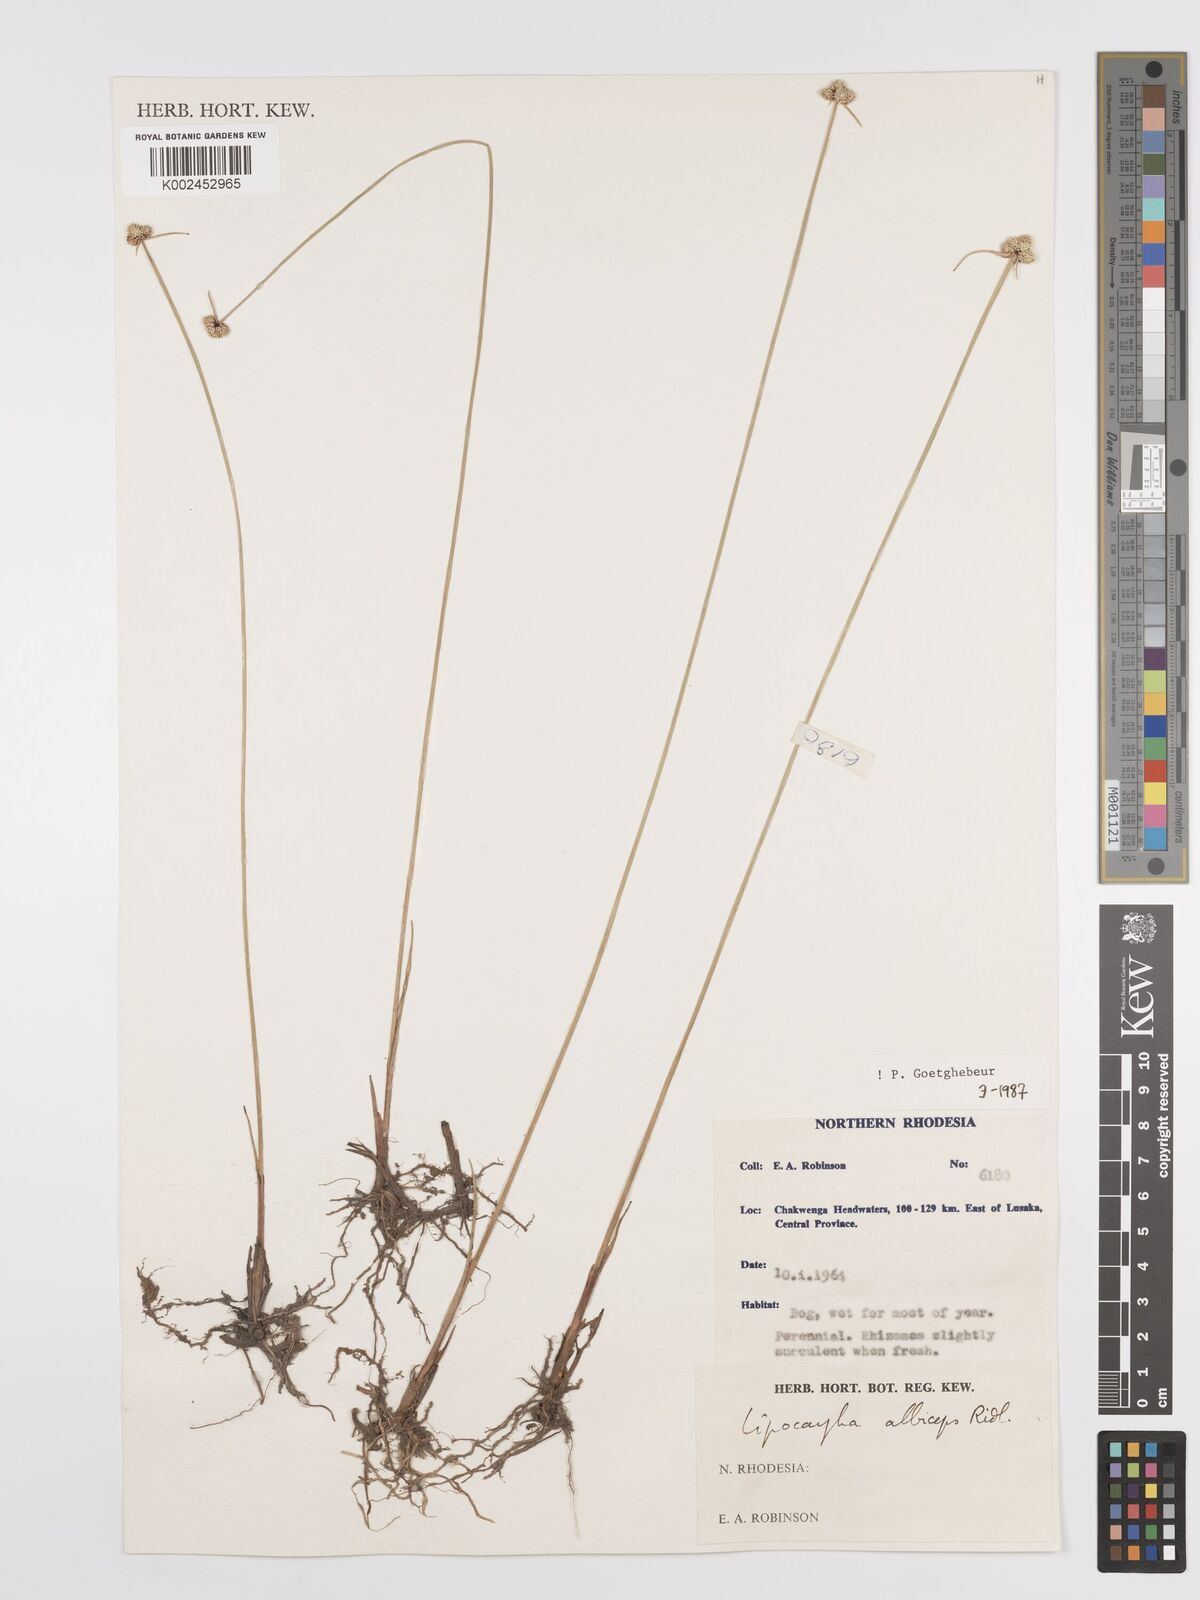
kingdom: Plantae
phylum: Tracheophyta
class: Liliopsida
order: Poales
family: Cyperaceae
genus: Cyperus
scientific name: Cyperus albiceps
